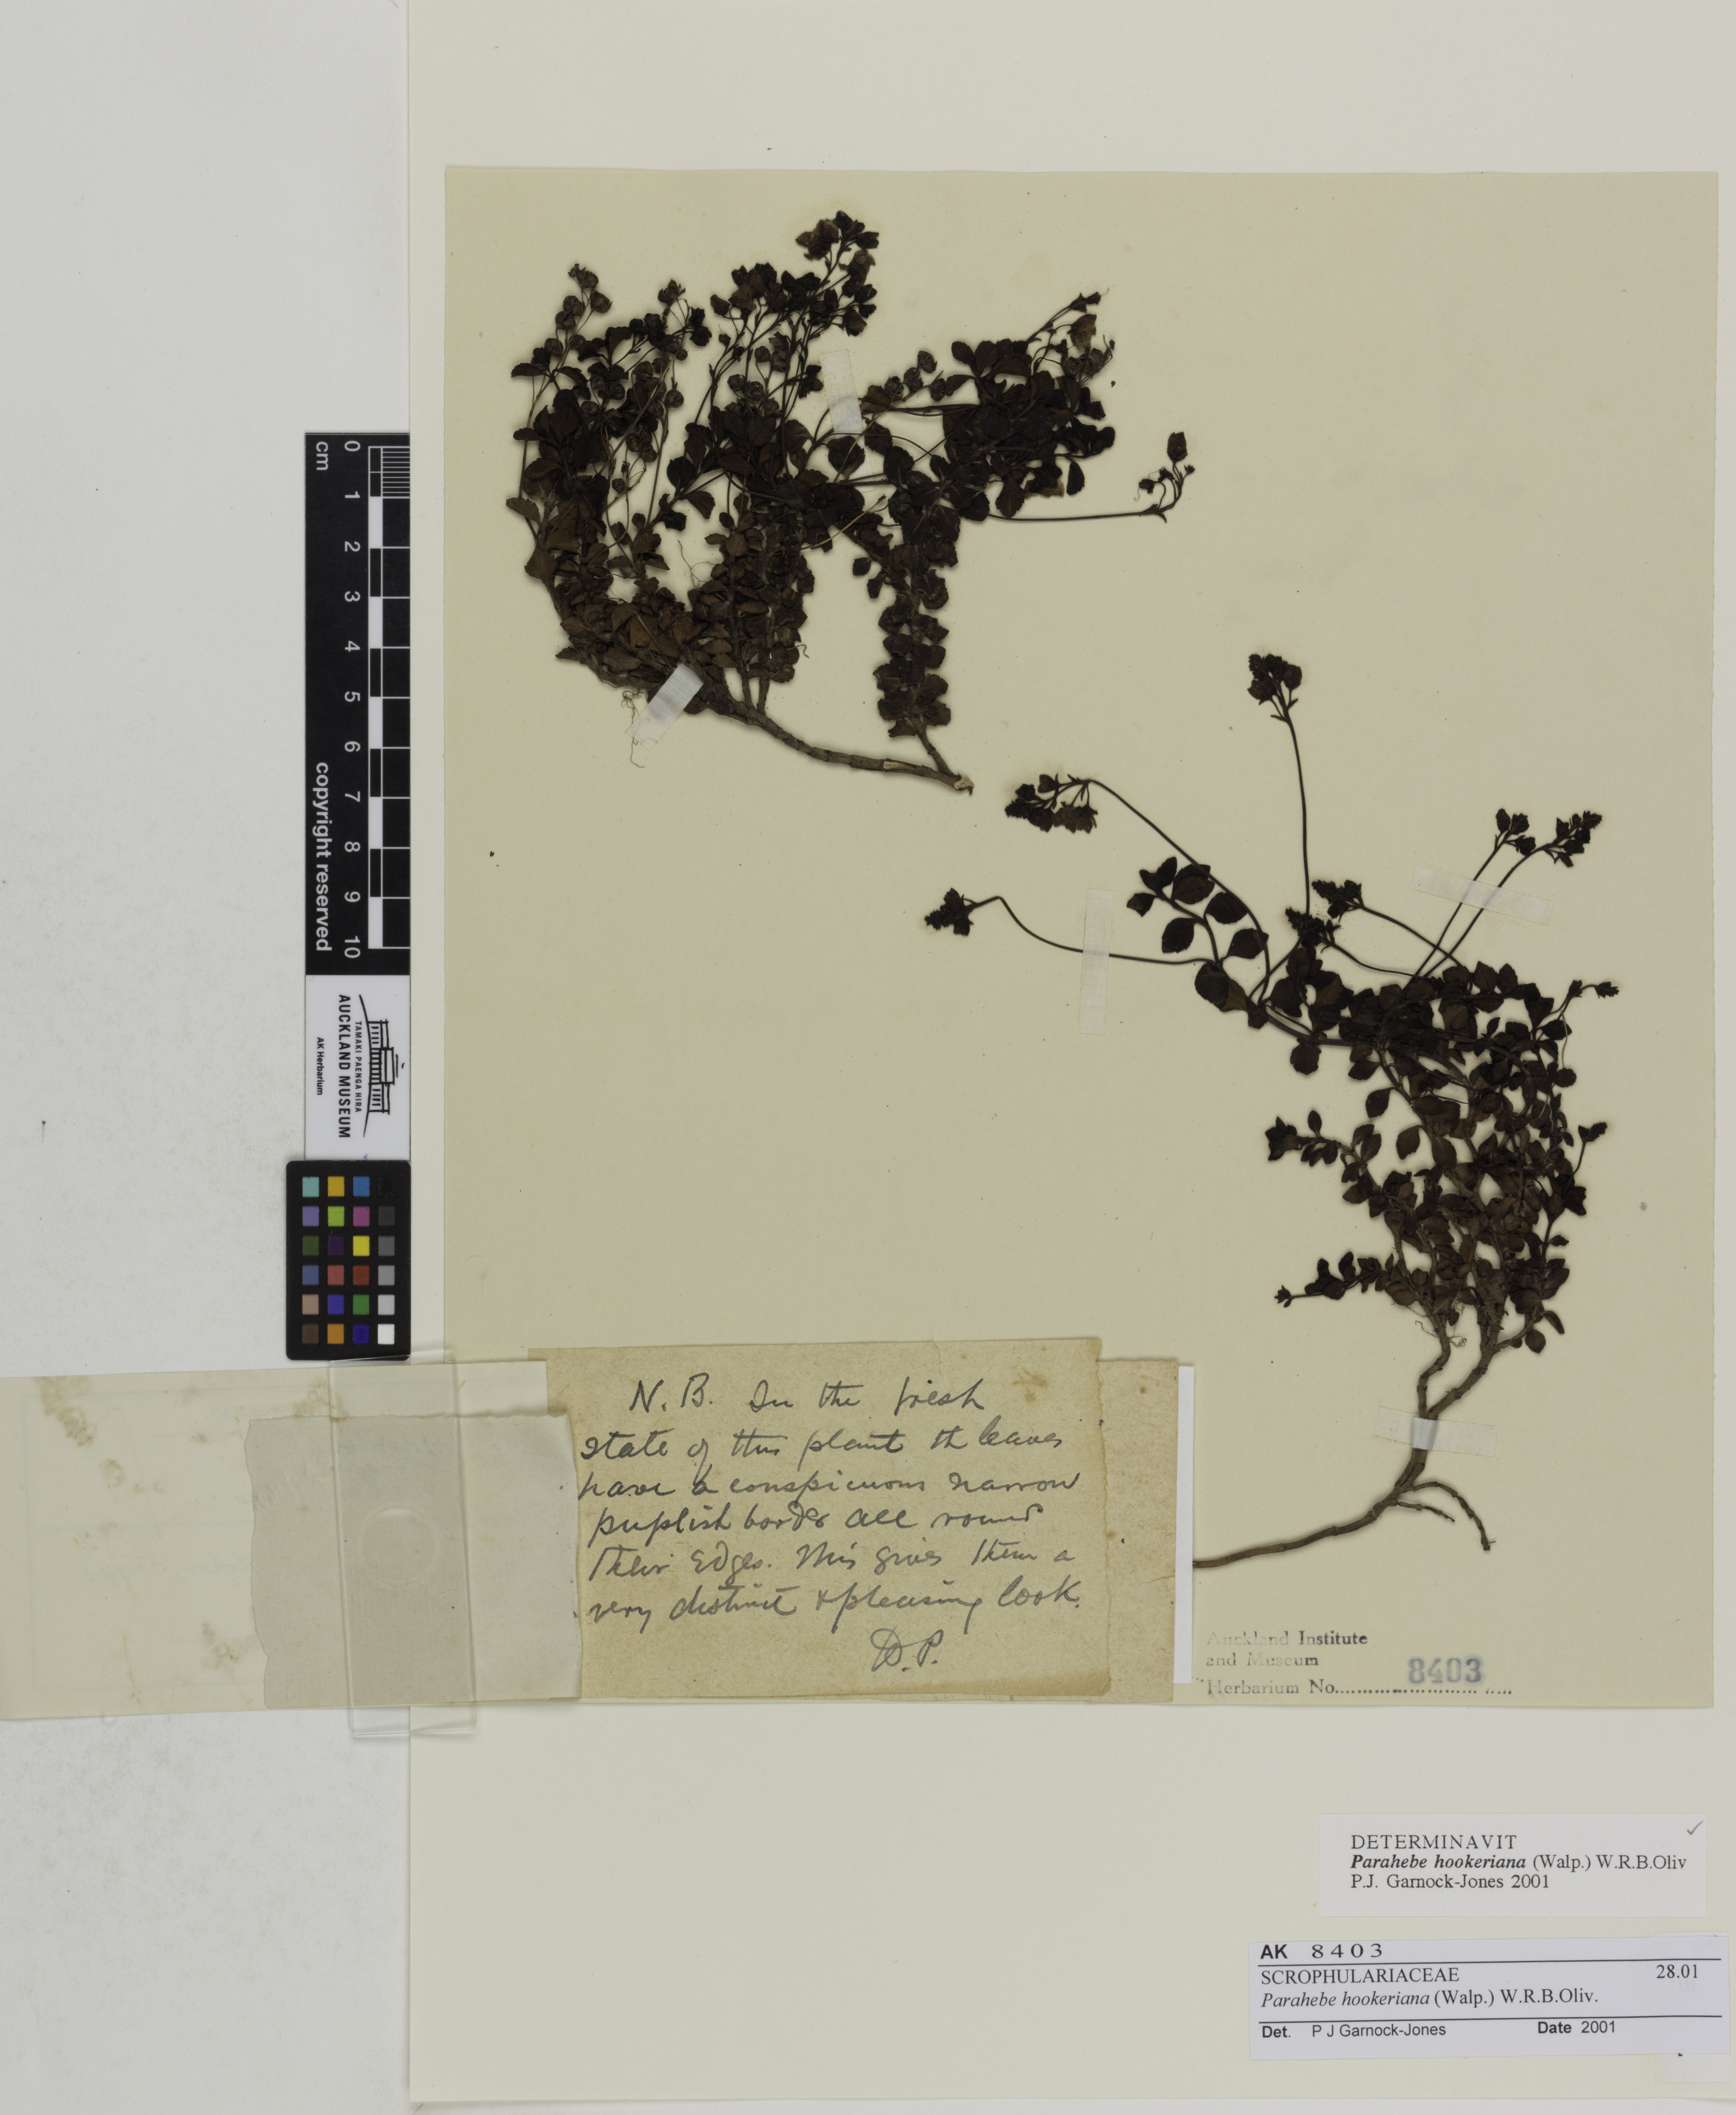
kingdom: Plantae
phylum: Tracheophyta
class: Magnoliopsida
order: Lamiales
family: Plantaginaceae
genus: Veronica
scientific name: Veronica hookeriana
